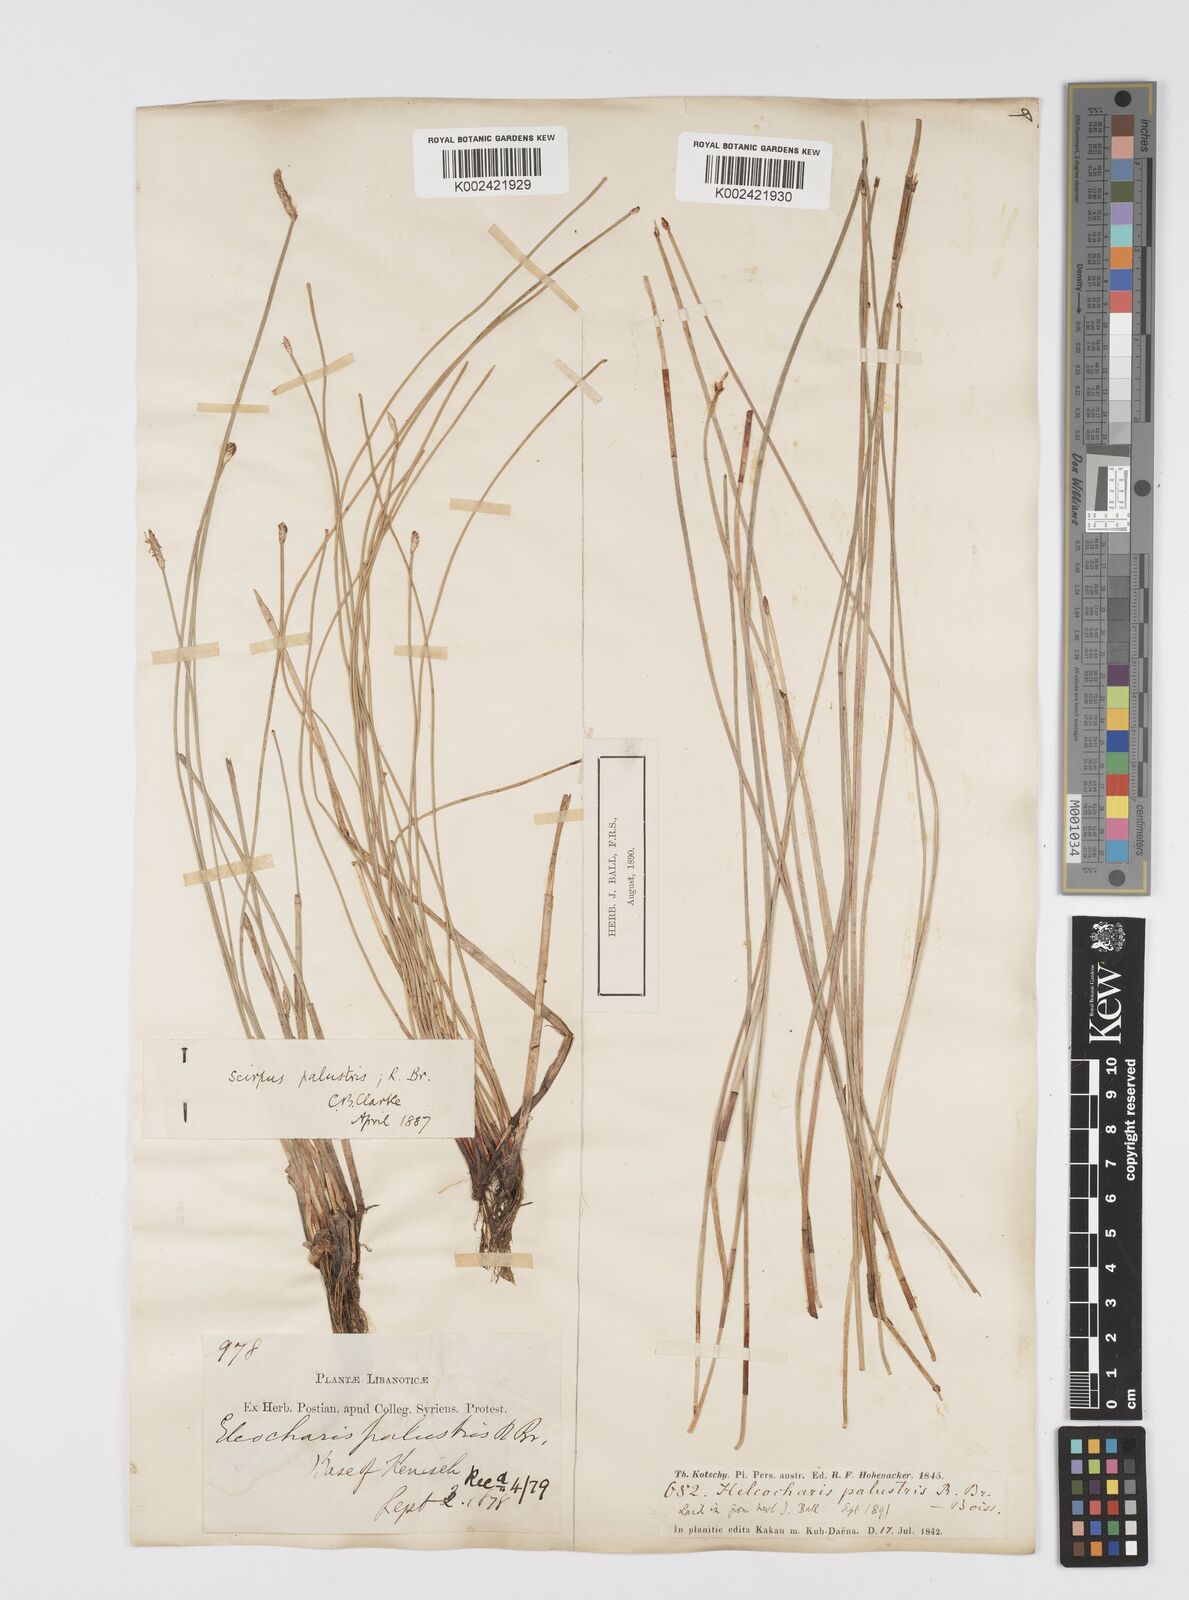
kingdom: Plantae
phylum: Tracheophyta
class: Liliopsida
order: Poales
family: Cyperaceae
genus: Eleocharis
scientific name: Eleocharis palustris
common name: Common spike-rush
